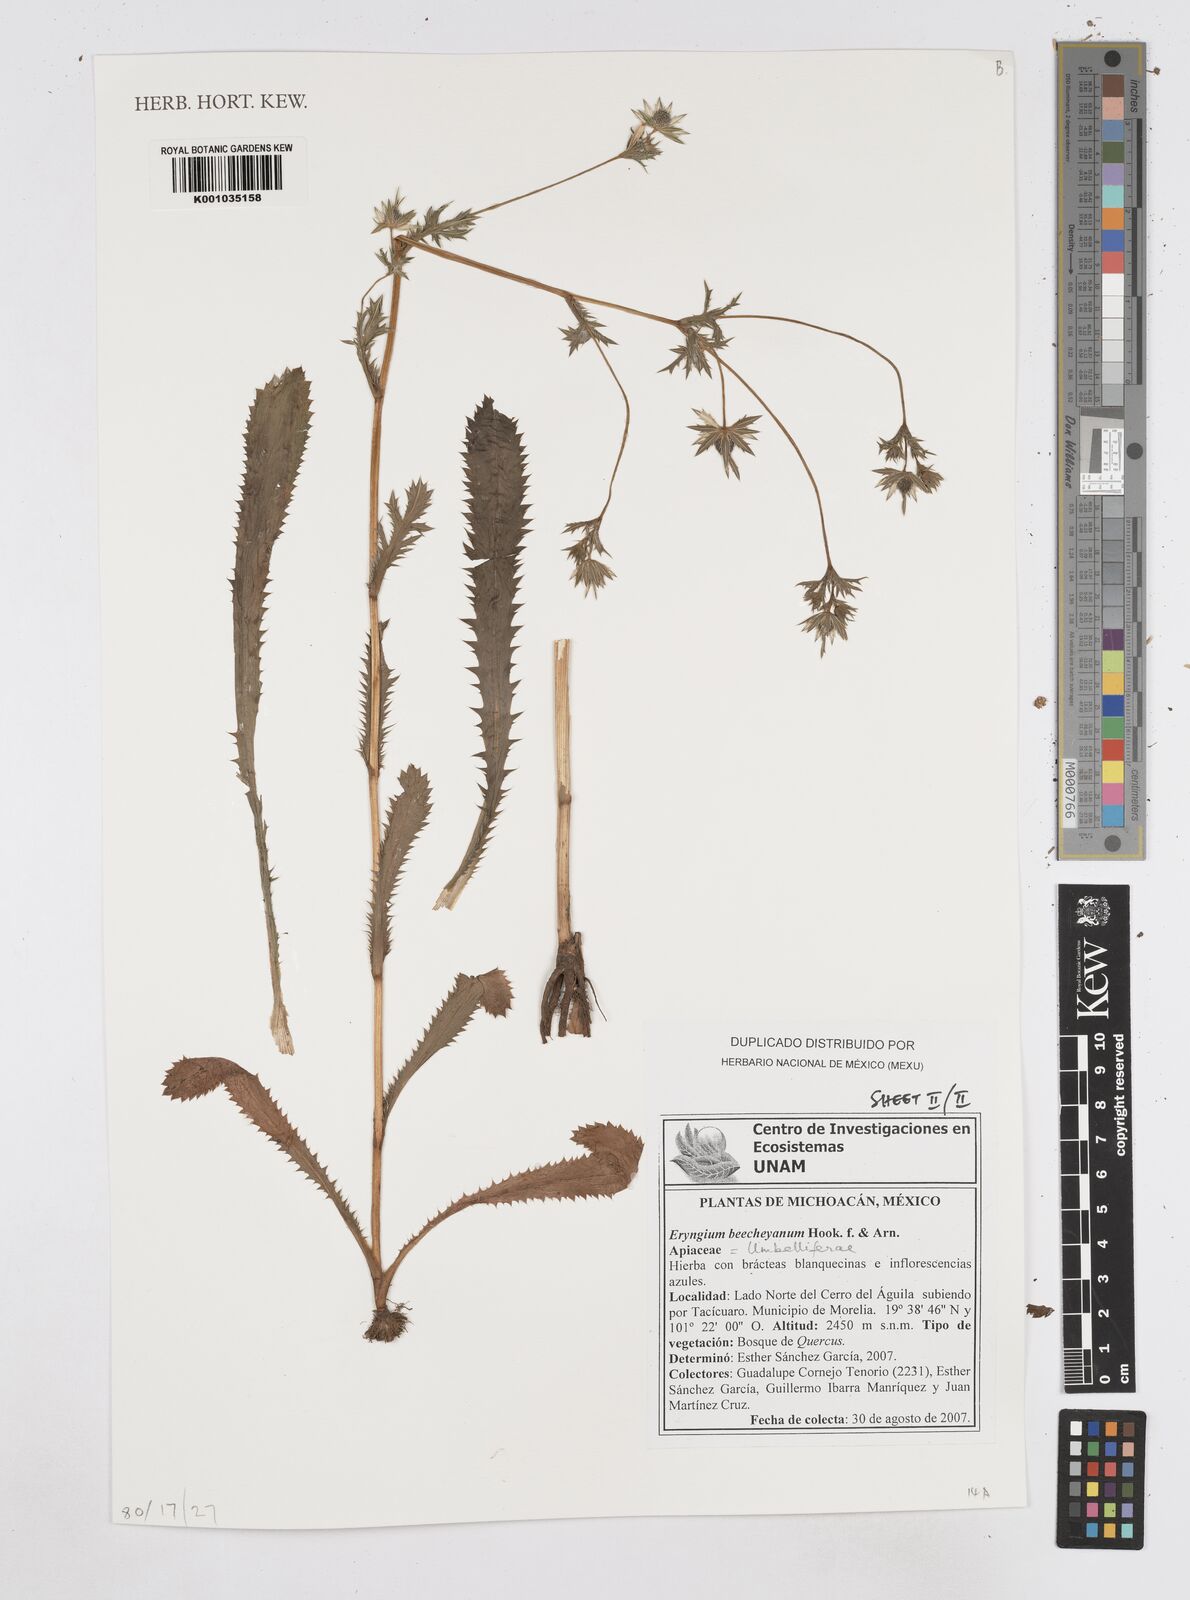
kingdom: Plantae
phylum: Tracheophyta
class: Magnoliopsida
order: Apiales
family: Apiaceae
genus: Eryngium
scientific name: Eryngium beecheyanum
